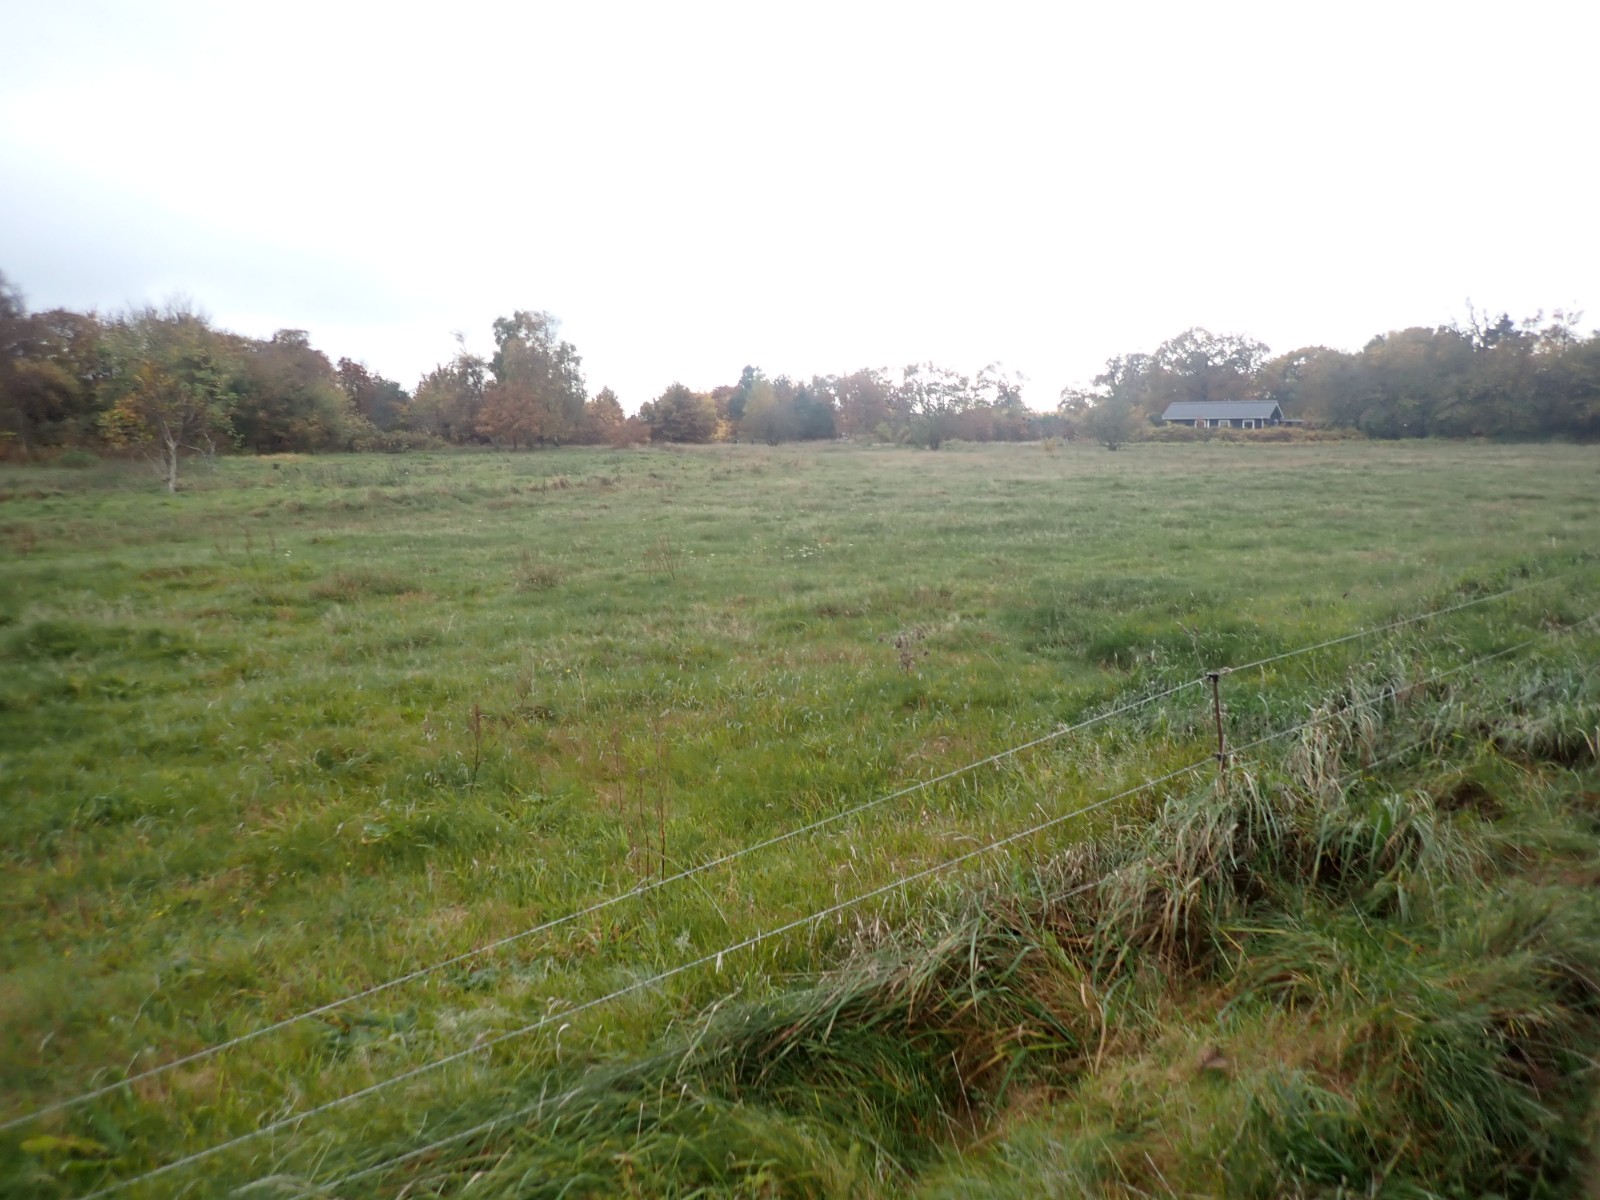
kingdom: Fungi
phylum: Basidiomycota
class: Agaricomycetes
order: Agaricales
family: Hygrophoraceae
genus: Hygrocybe
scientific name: Hygrocybe insipida
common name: liden vokshat
